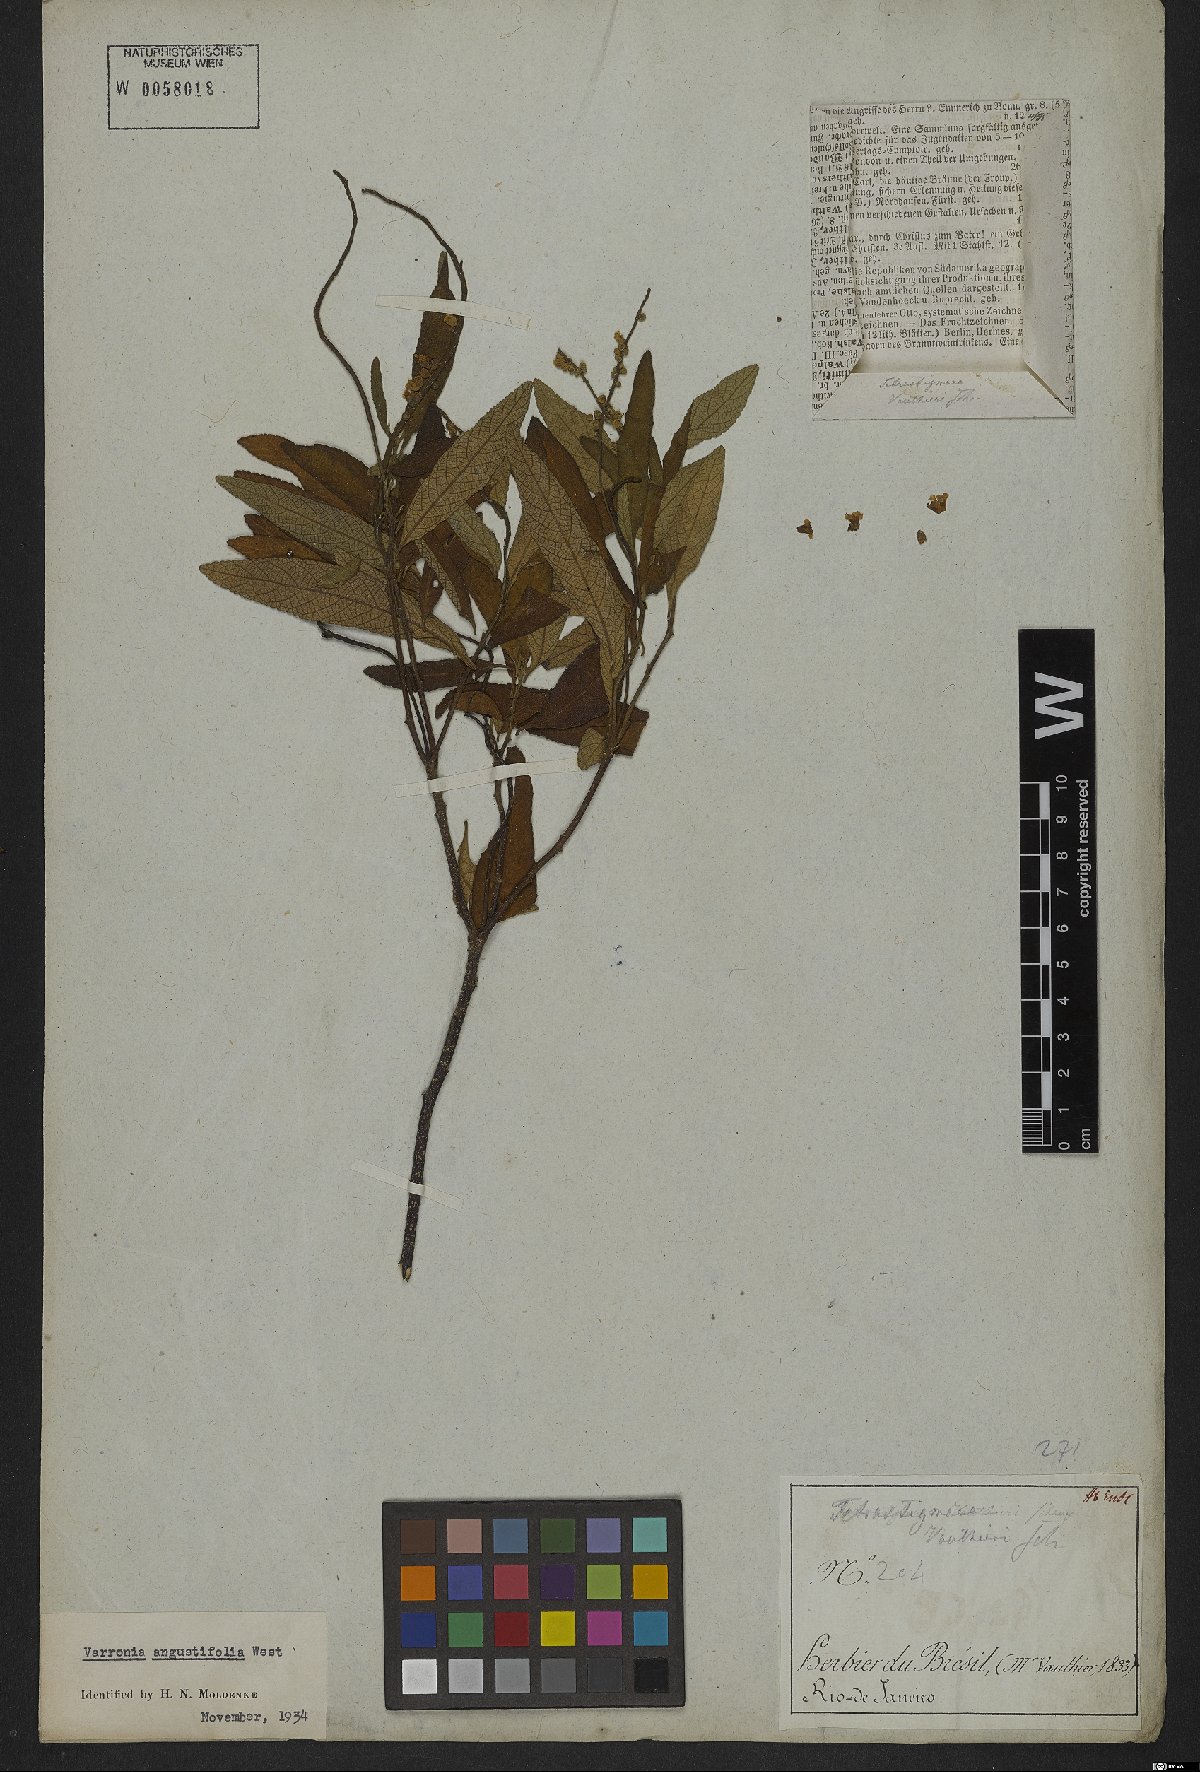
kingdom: Plantae
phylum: Tracheophyta
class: Magnoliopsida
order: Boraginales
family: Cordiaceae
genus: Varronia
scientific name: Varronia curassavica
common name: Black sage
